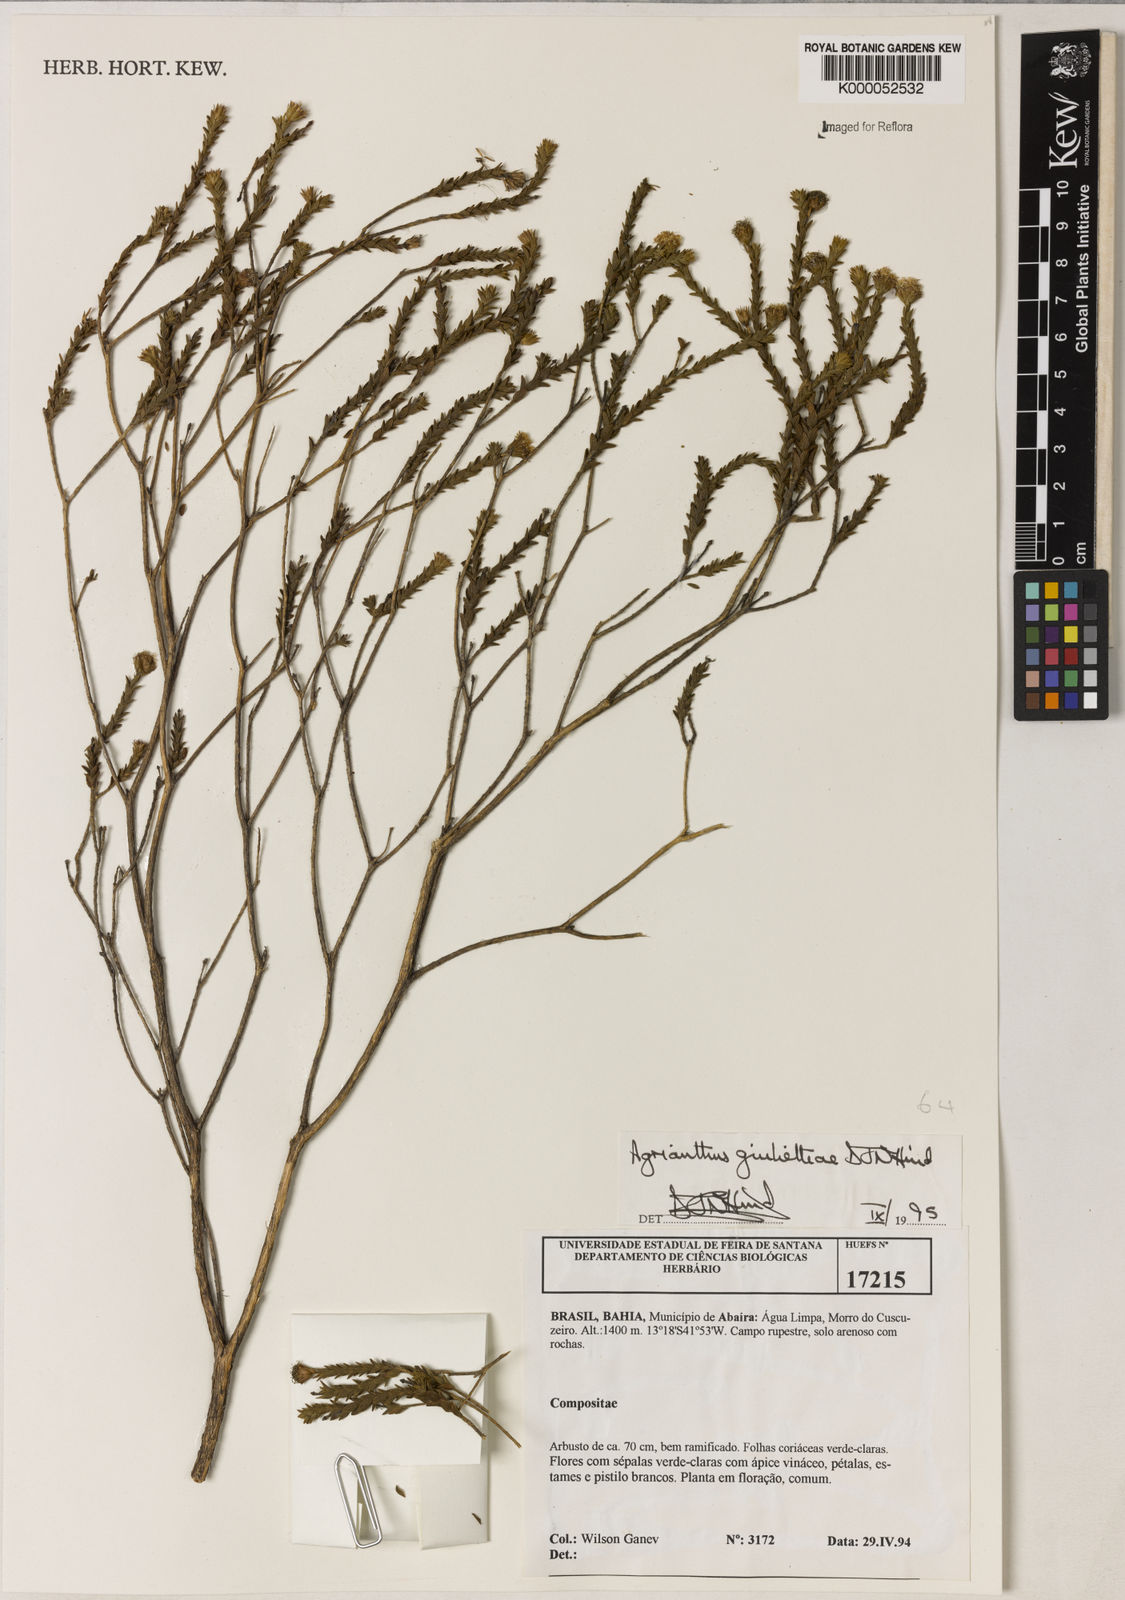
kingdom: Plantae
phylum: Tracheophyta
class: Magnoliopsida
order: Asterales
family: Asteraceae
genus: Agrianthus
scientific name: Agrianthus giuliettiae
